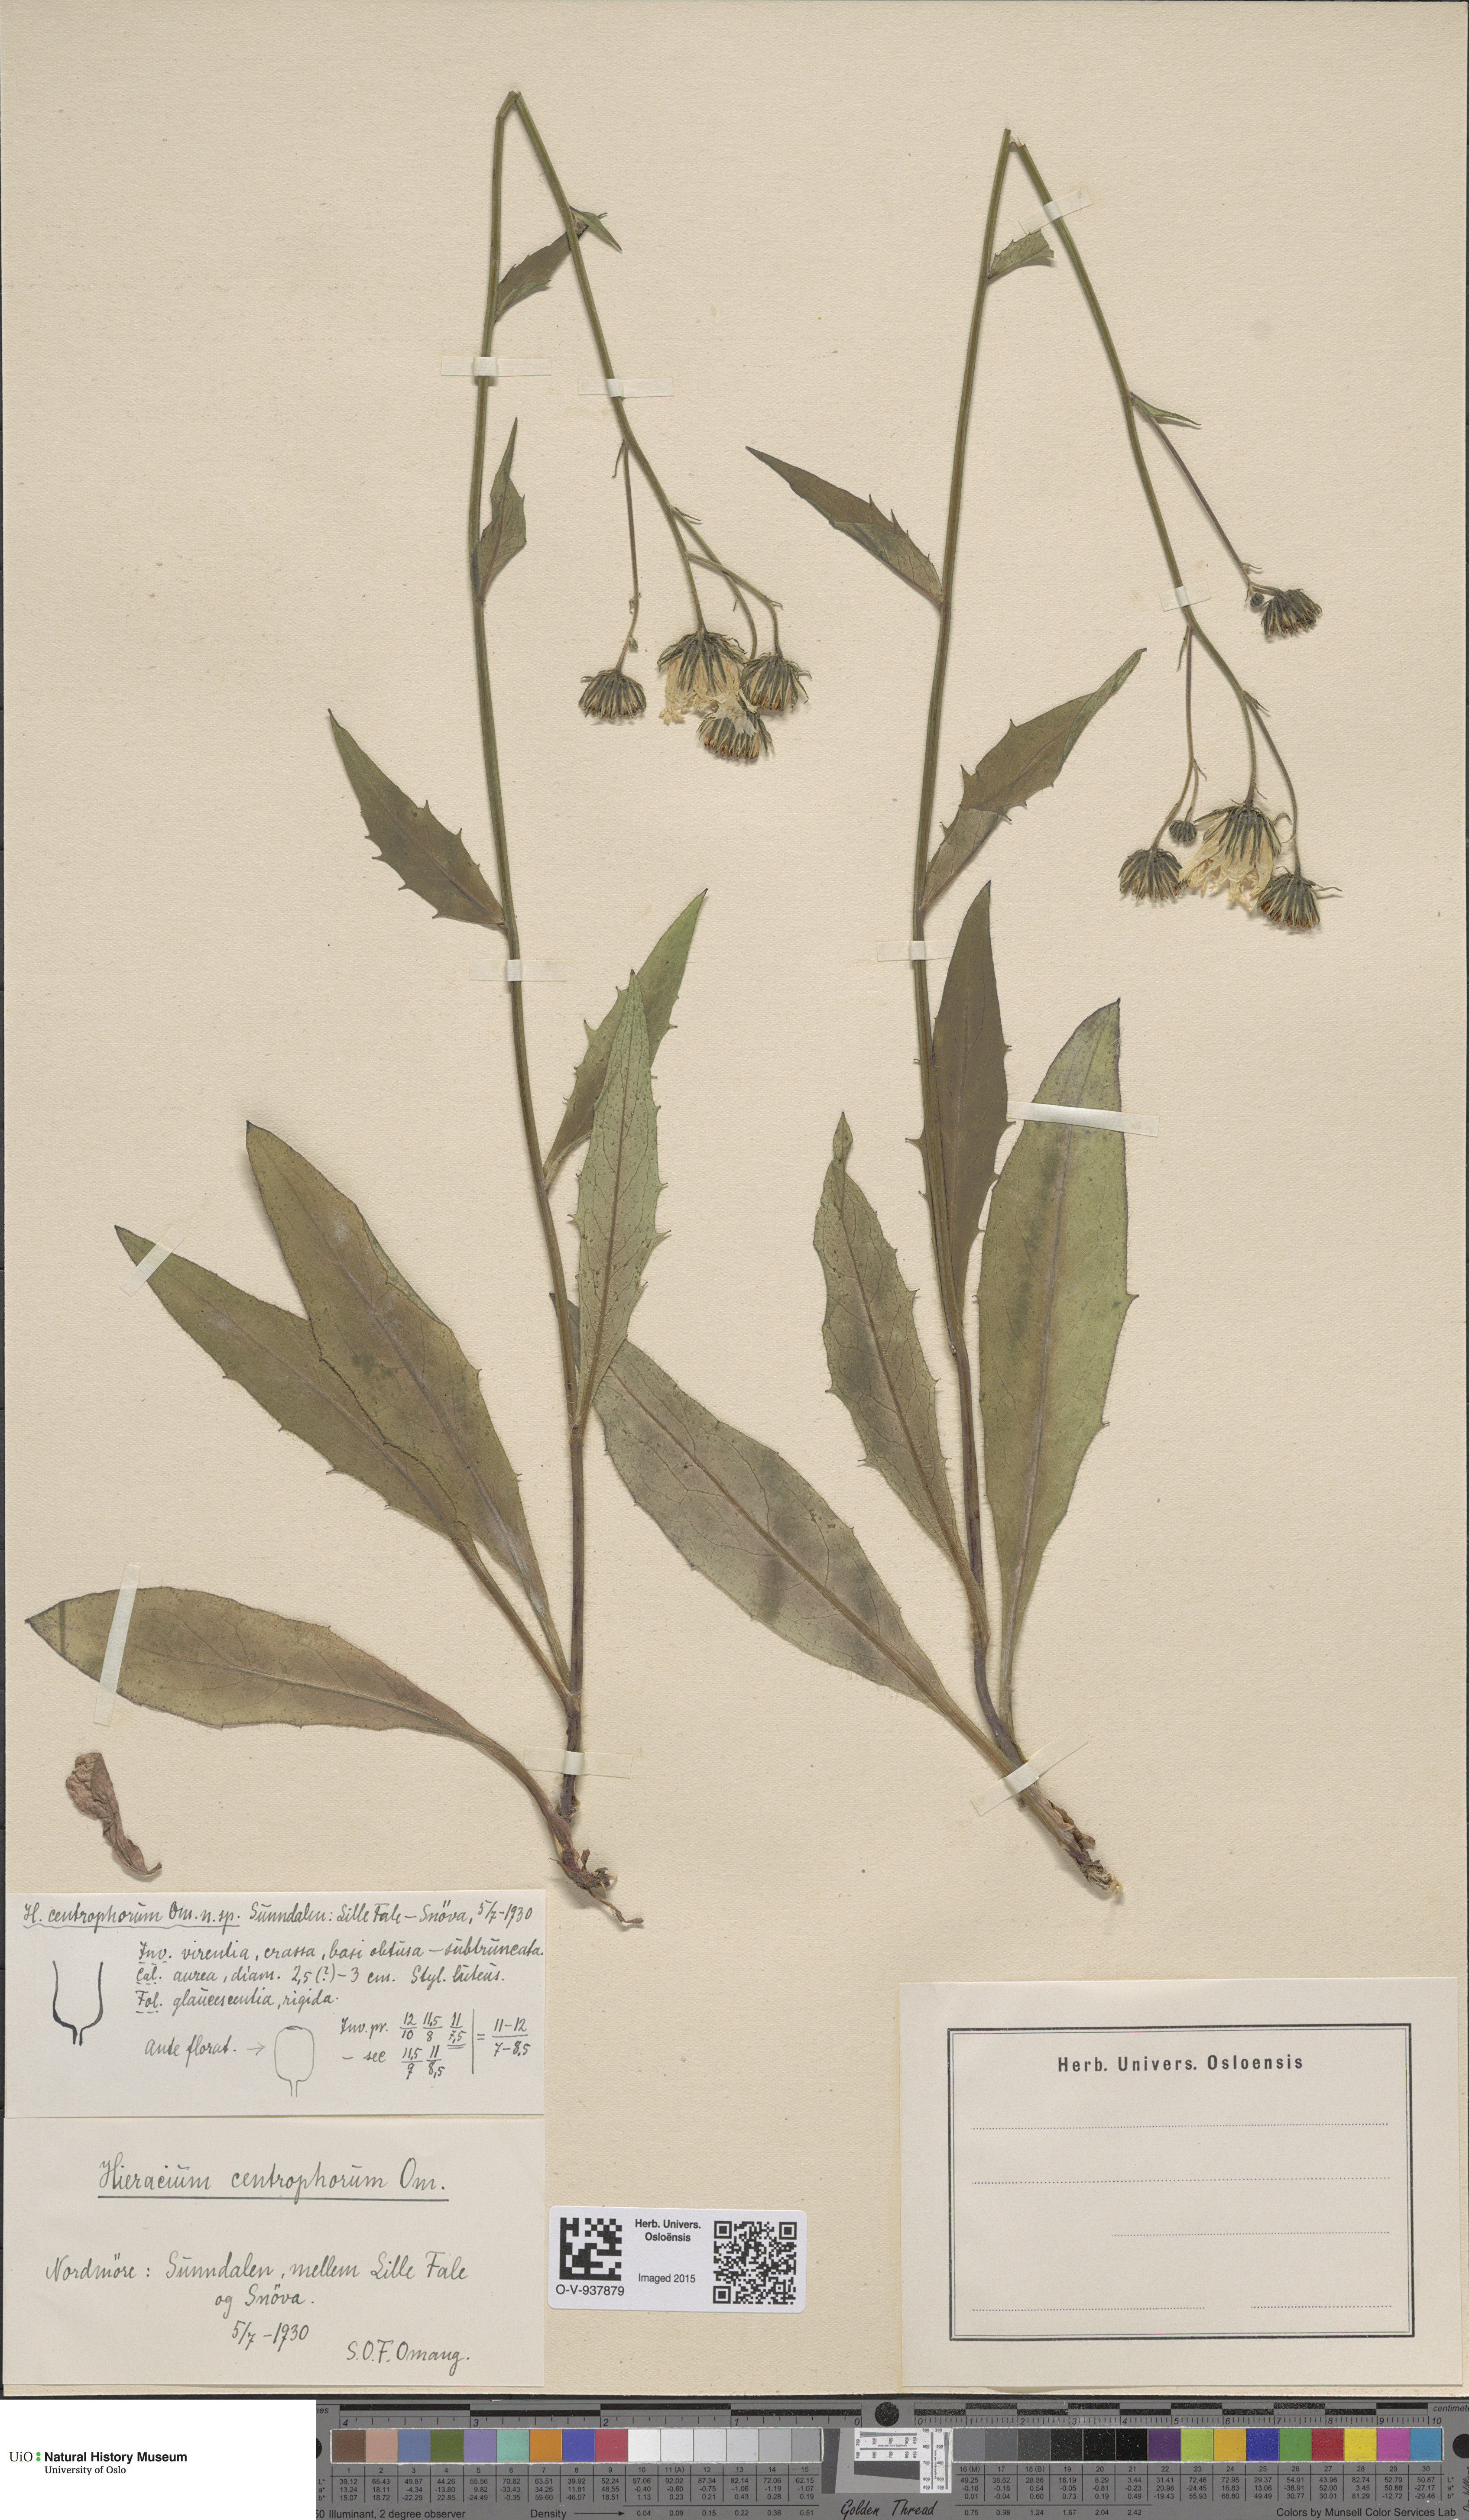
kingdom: Plantae
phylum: Tracheophyta
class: Magnoliopsida
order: Asterales
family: Asteraceae
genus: Hieracium
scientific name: Hieracium
